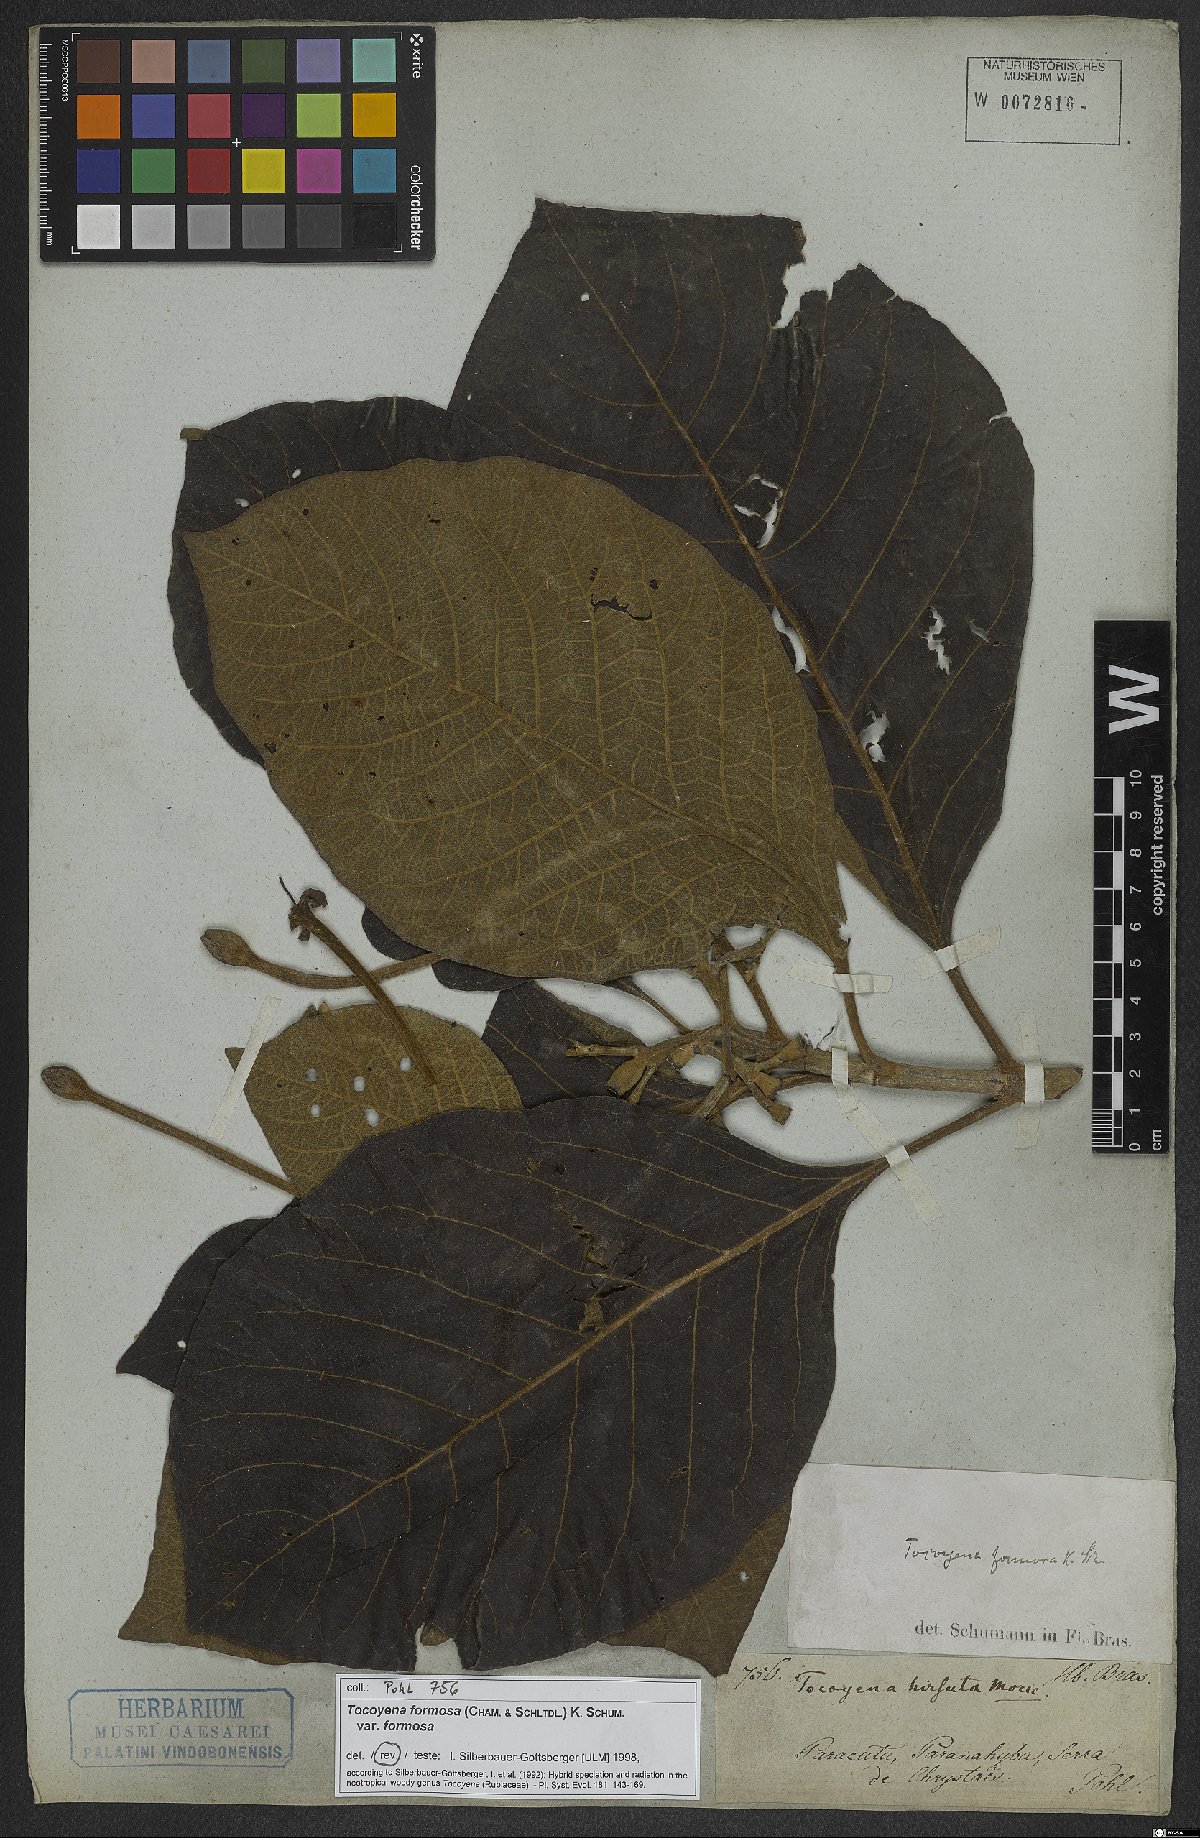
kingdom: Plantae
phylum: Tracheophyta
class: Magnoliopsida
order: Gentianales
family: Rubiaceae
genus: Tocoyena
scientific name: Tocoyena formosa
